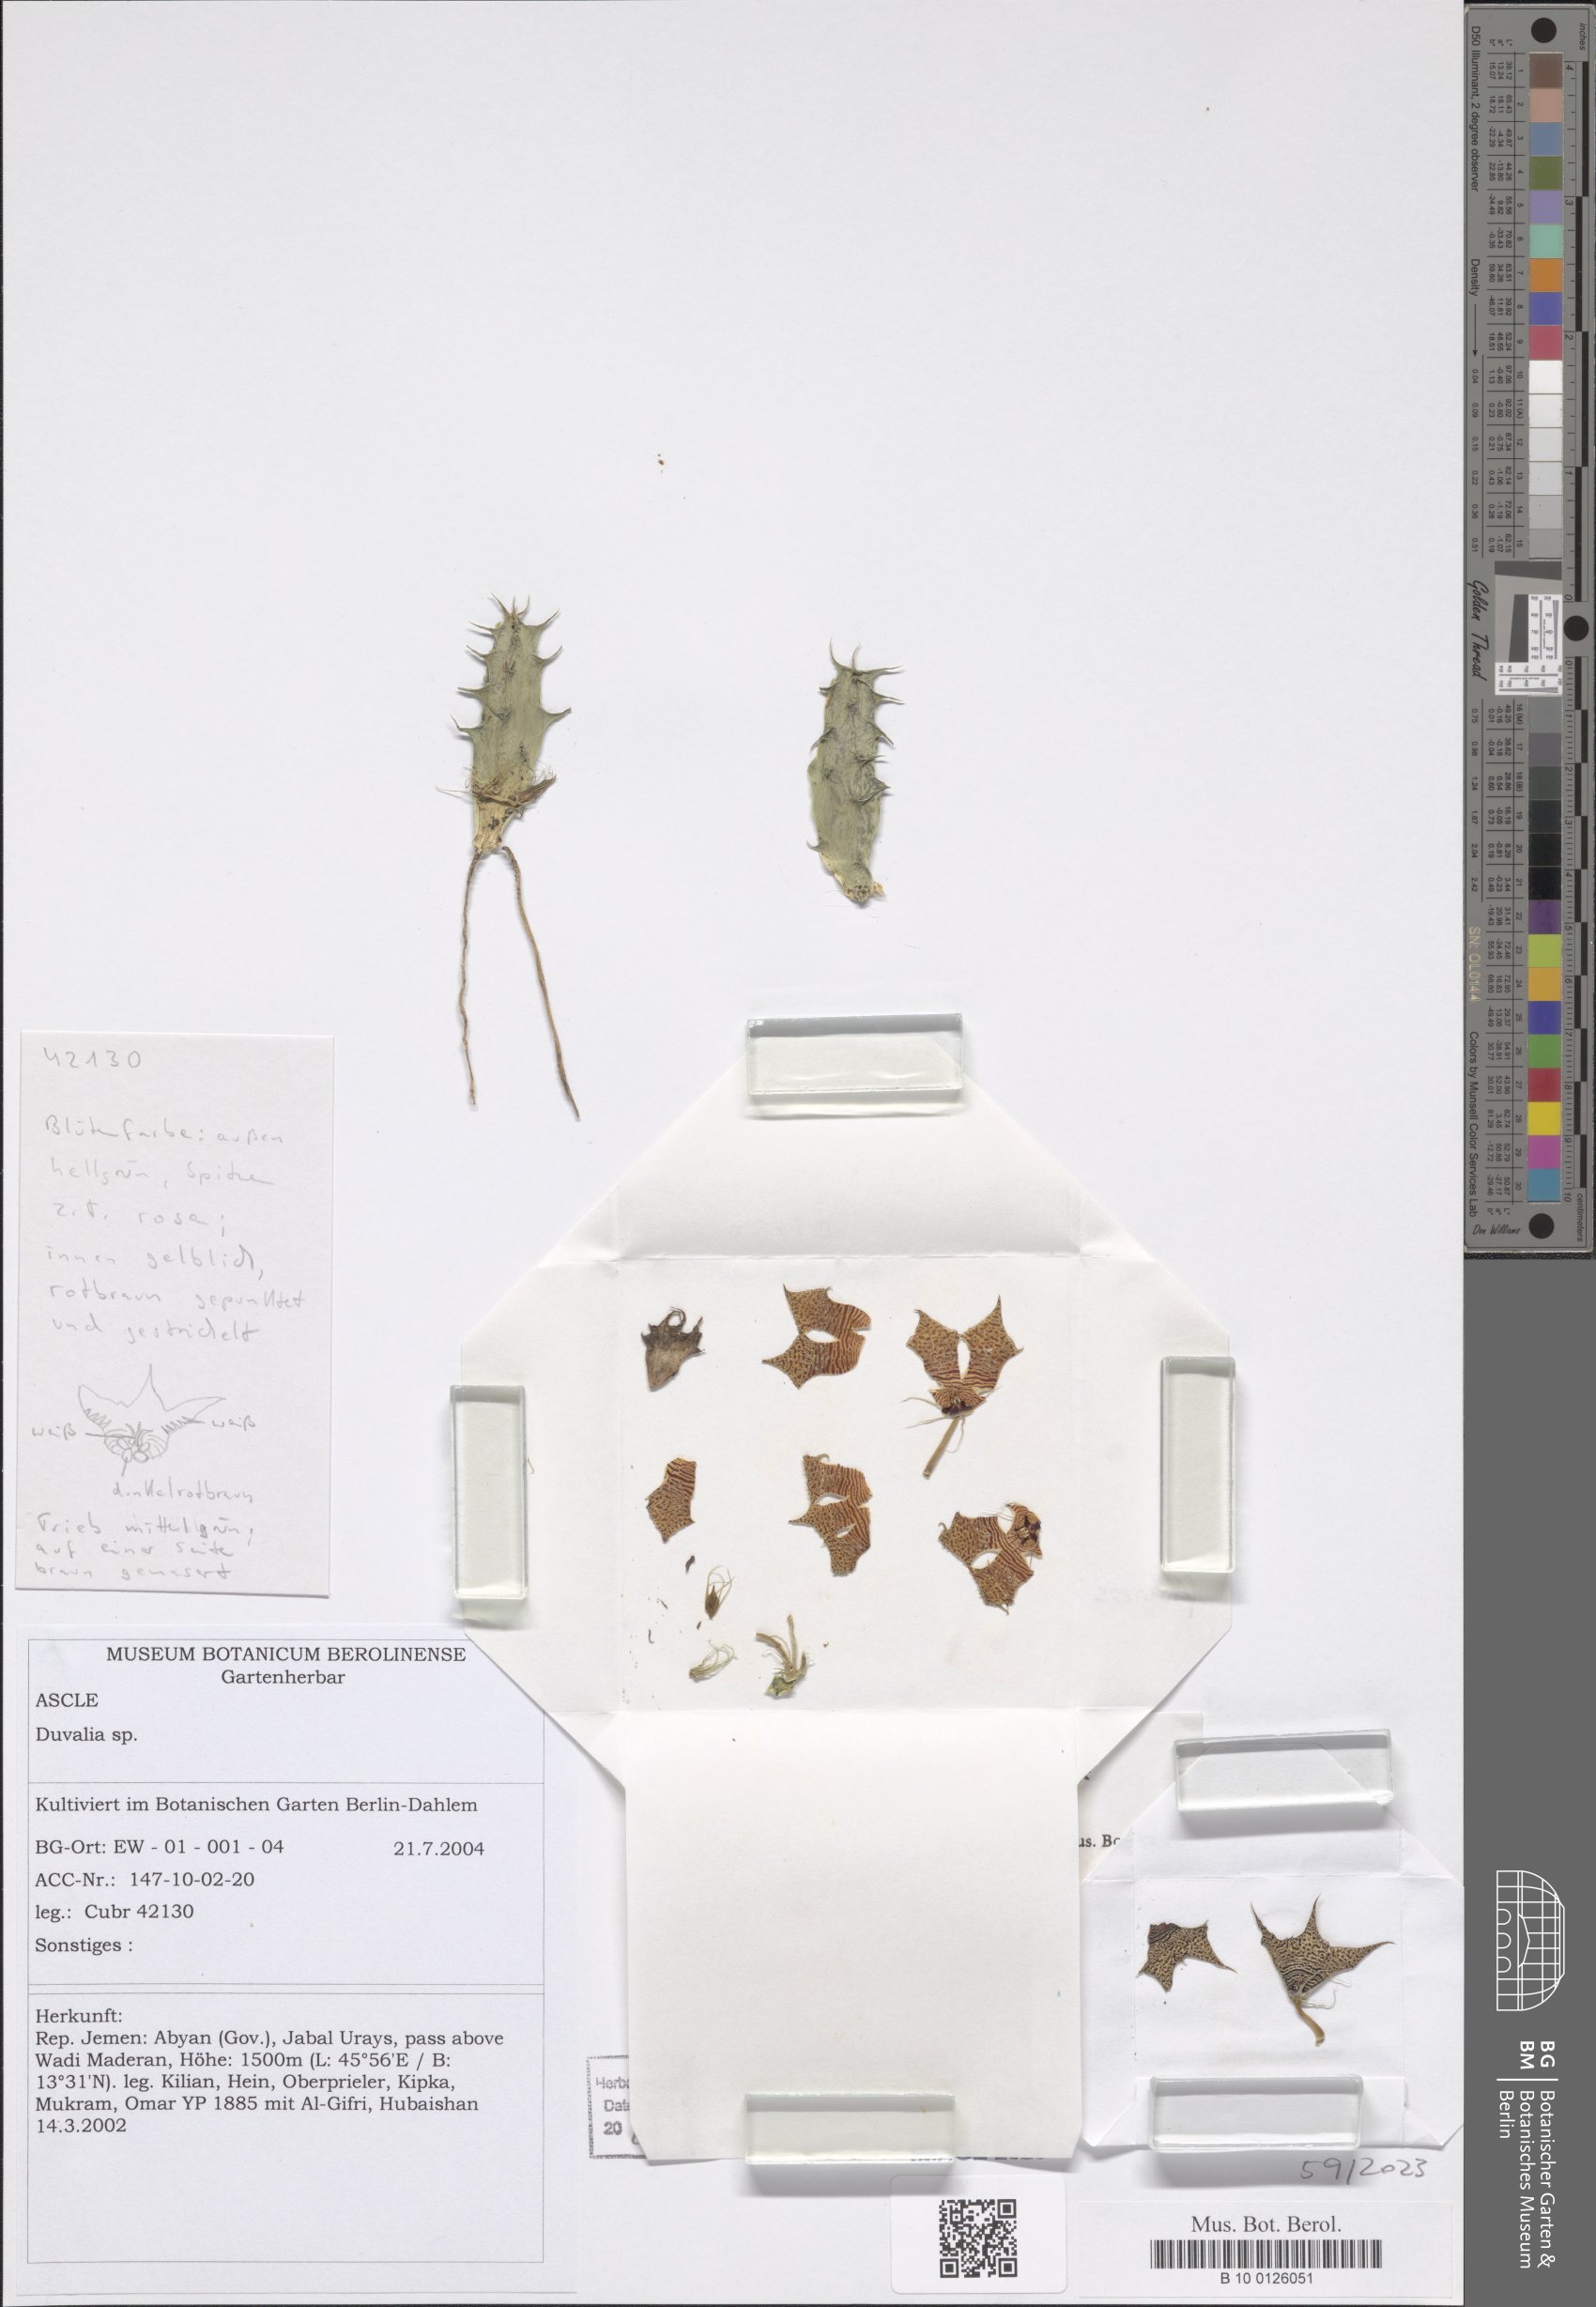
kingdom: Plantae
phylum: Tracheophyta
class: Magnoliopsida
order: Gentianales
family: Apocynaceae
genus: Ceropegia
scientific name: Ceropegia lodarensis
